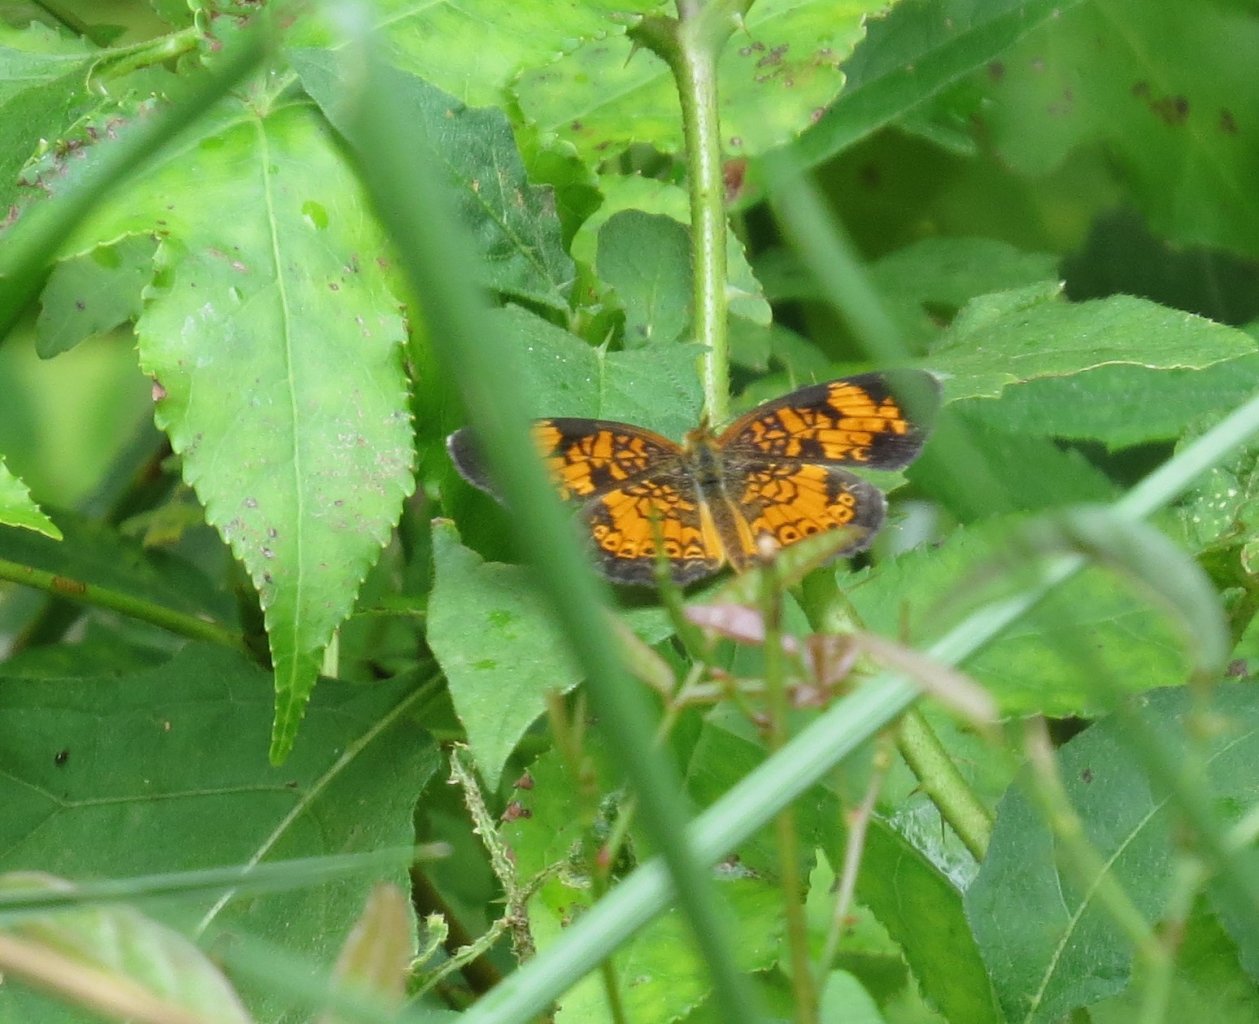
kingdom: Animalia
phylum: Arthropoda
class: Insecta
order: Lepidoptera
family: Nymphalidae
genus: Phyciodes
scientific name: Phyciodes tharos
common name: Pearl Crescent
